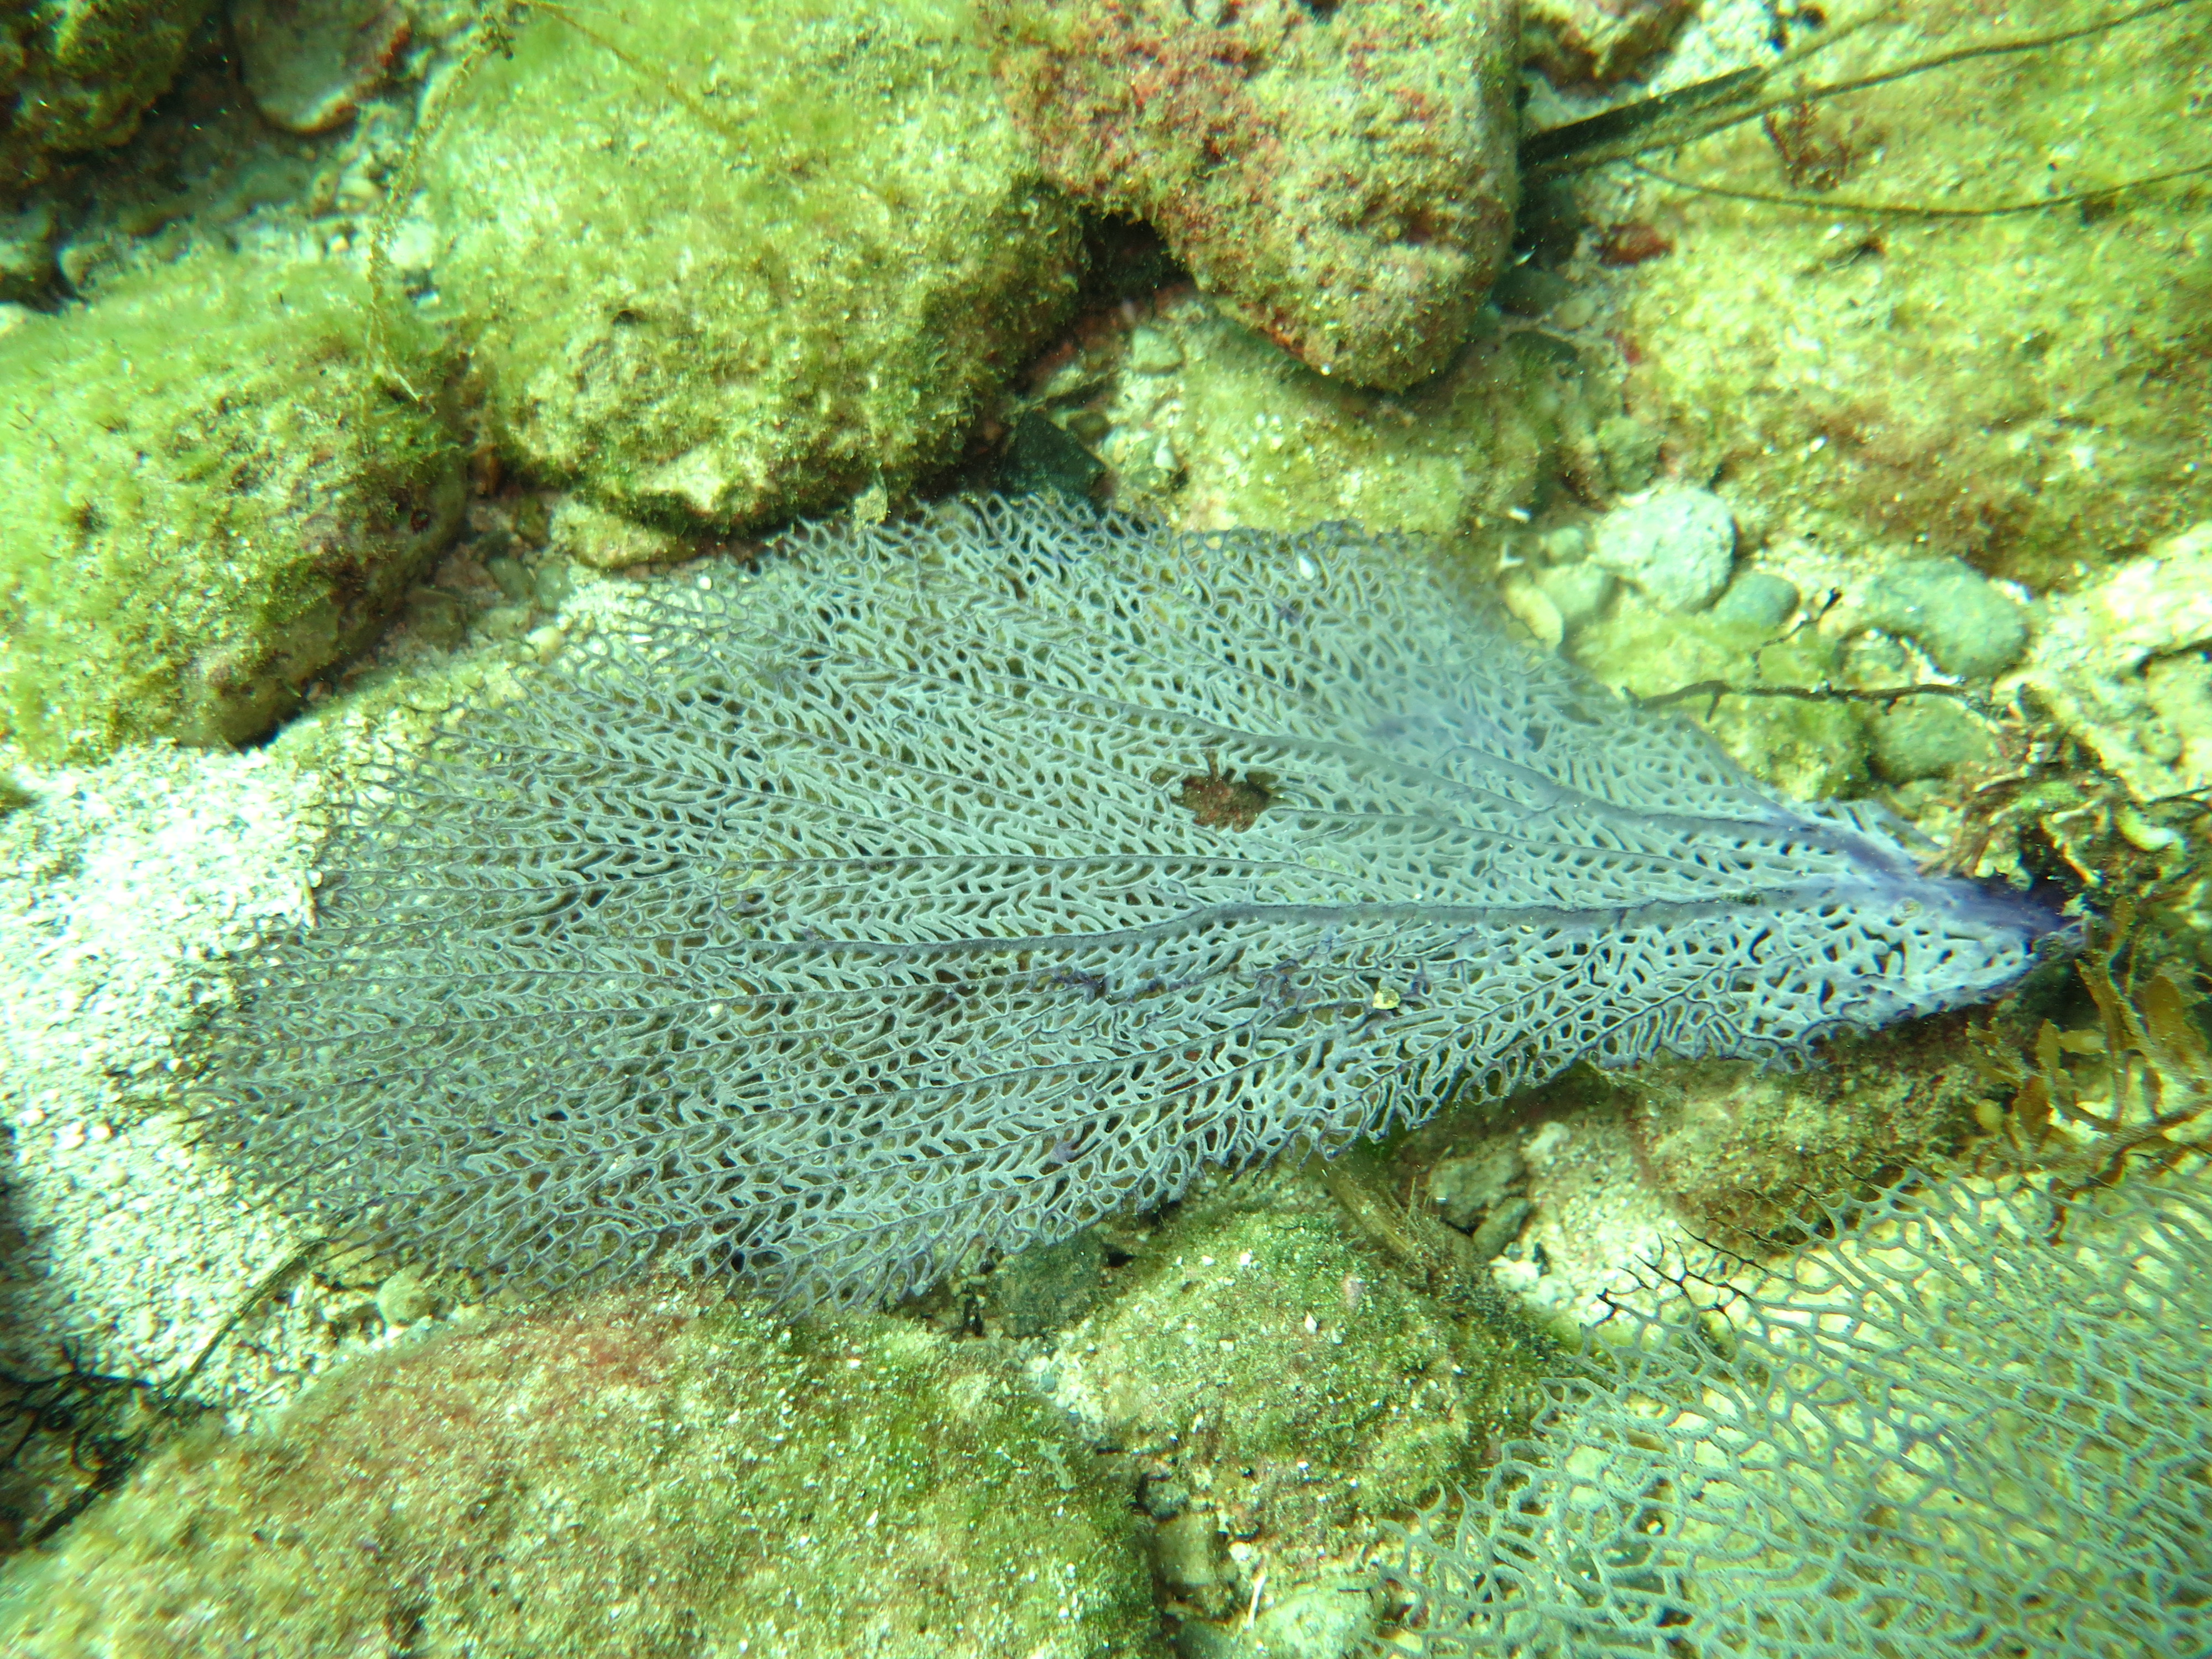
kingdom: Animalia
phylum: Cnidaria
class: Anthozoa
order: Malacalcyonacea
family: Gorgoniidae
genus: Gorgonia
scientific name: Gorgonia ventalina
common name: Common sea fan
